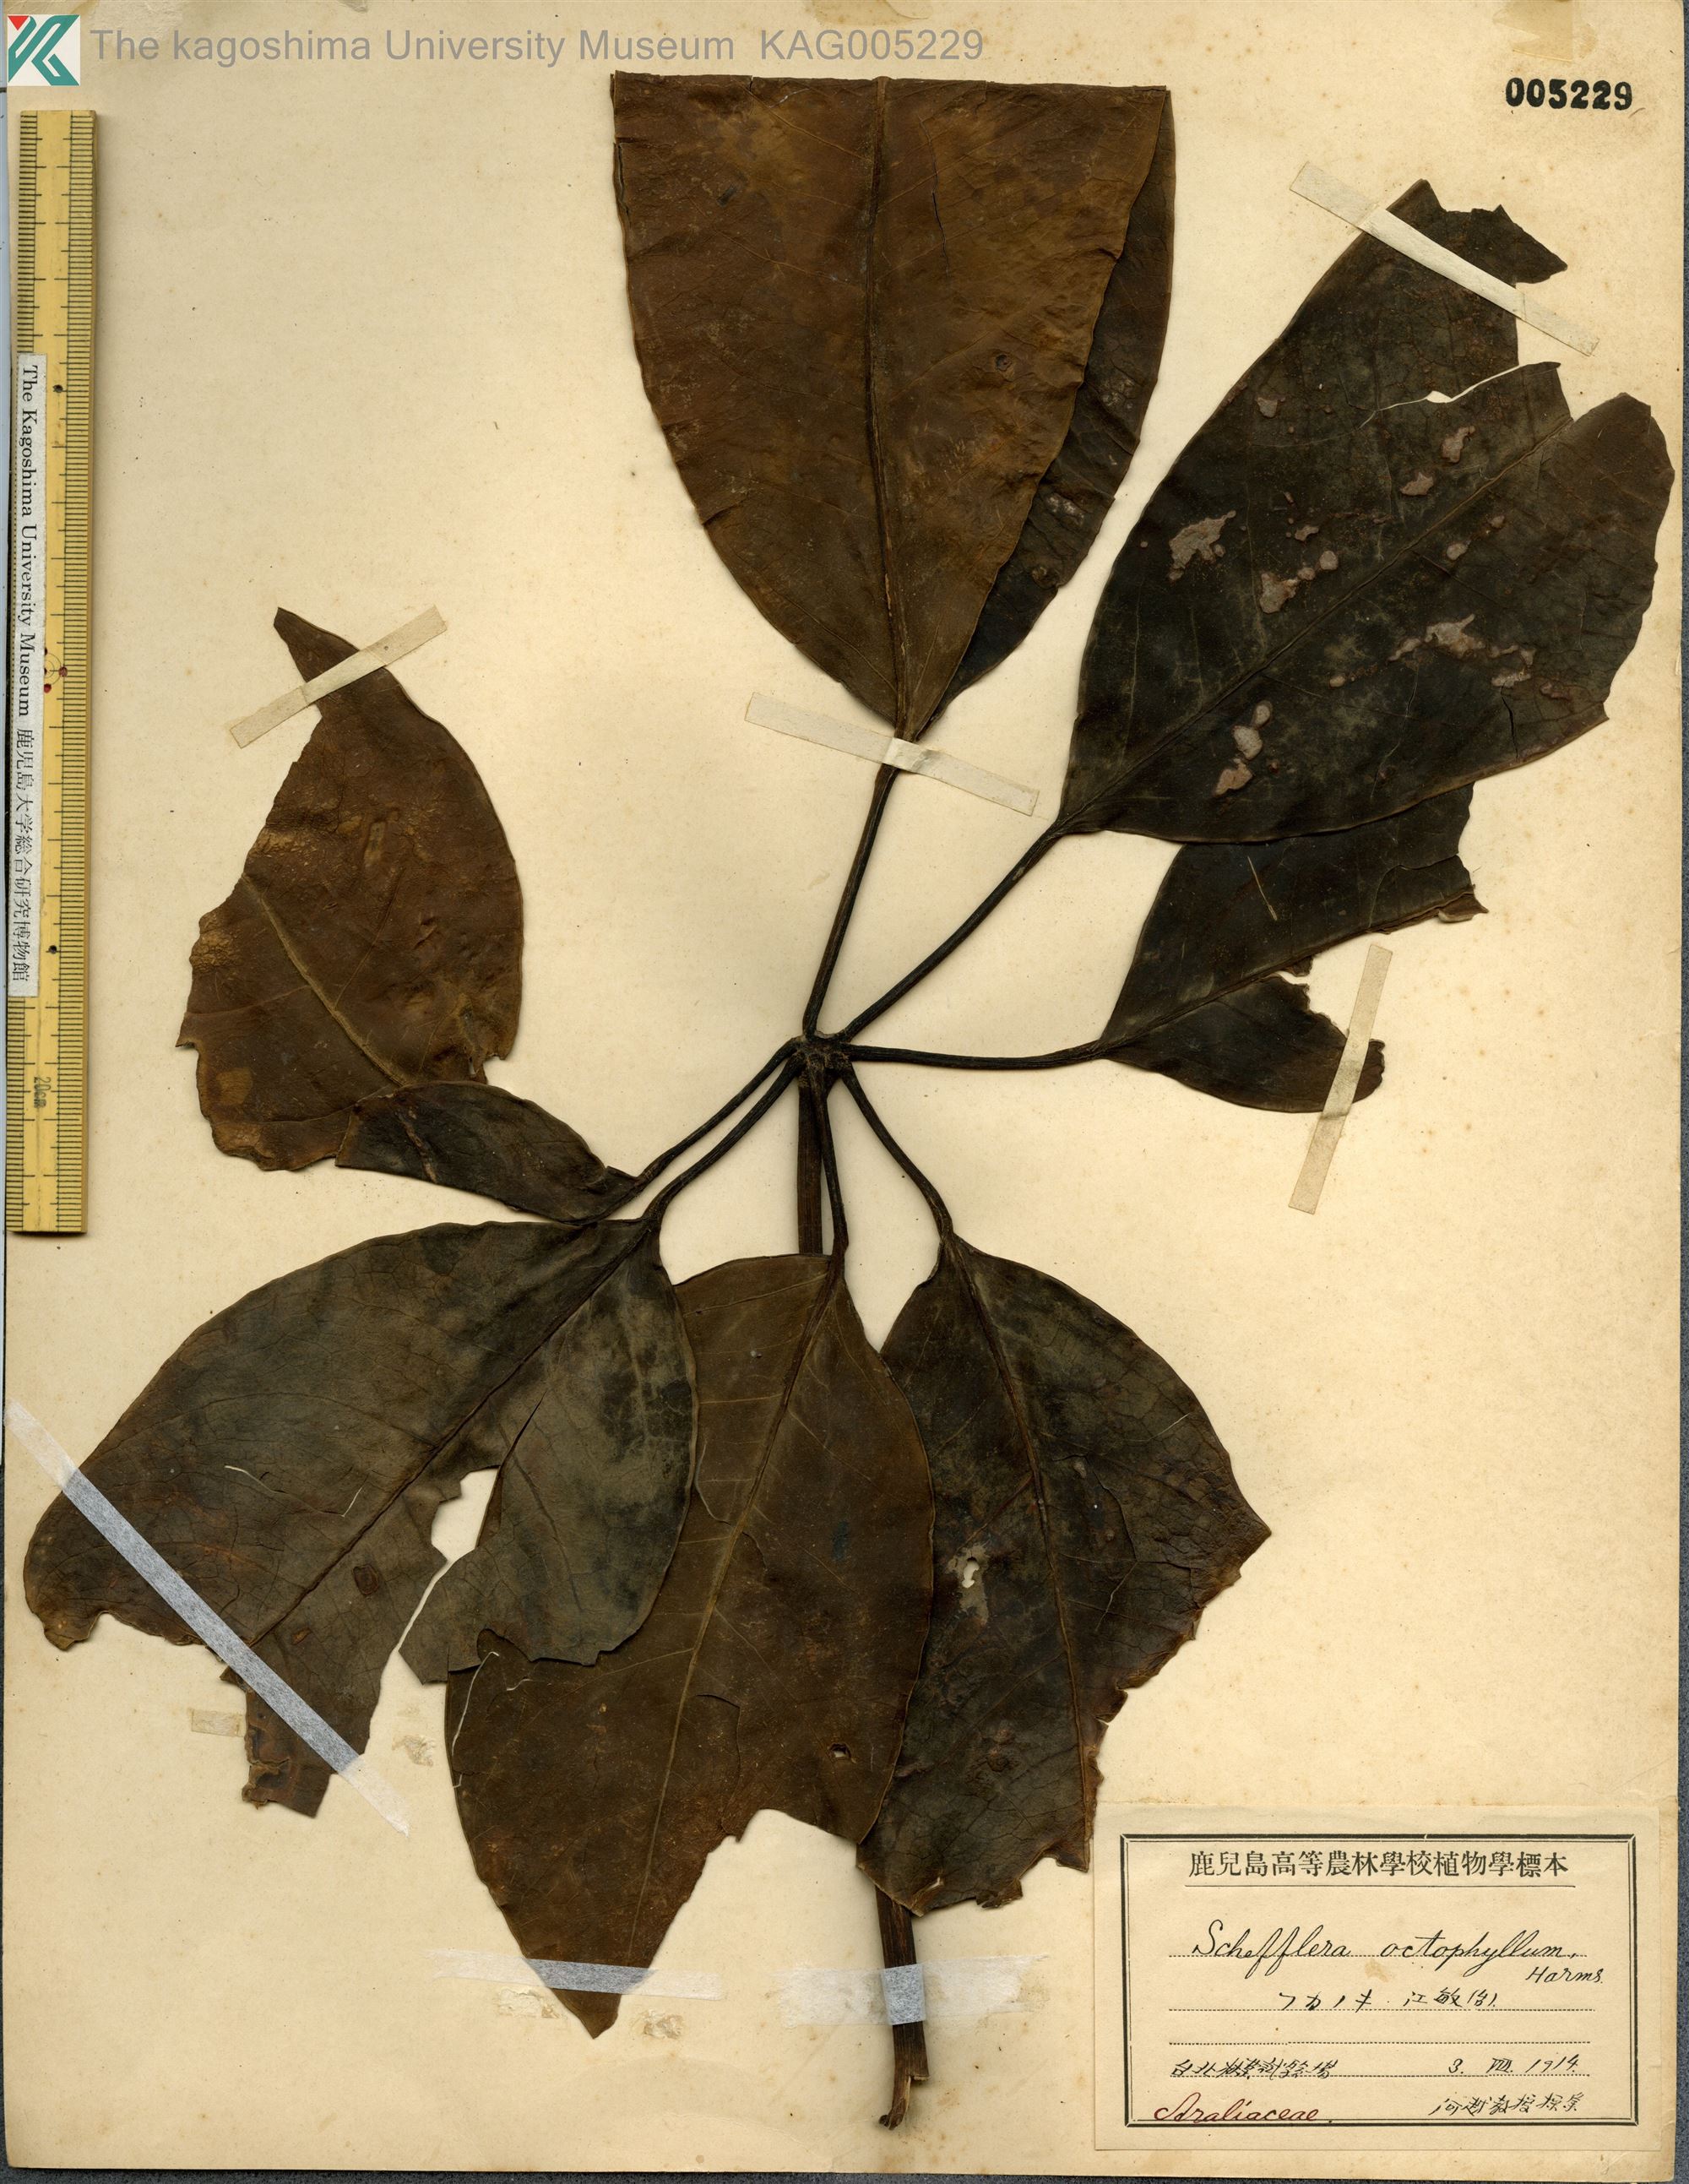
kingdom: Plantae
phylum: Tracheophyta
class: Magnoliopsida
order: Apiales
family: Araliaceae
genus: Heptapleurum
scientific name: Heptapleurum heptaphyllum
